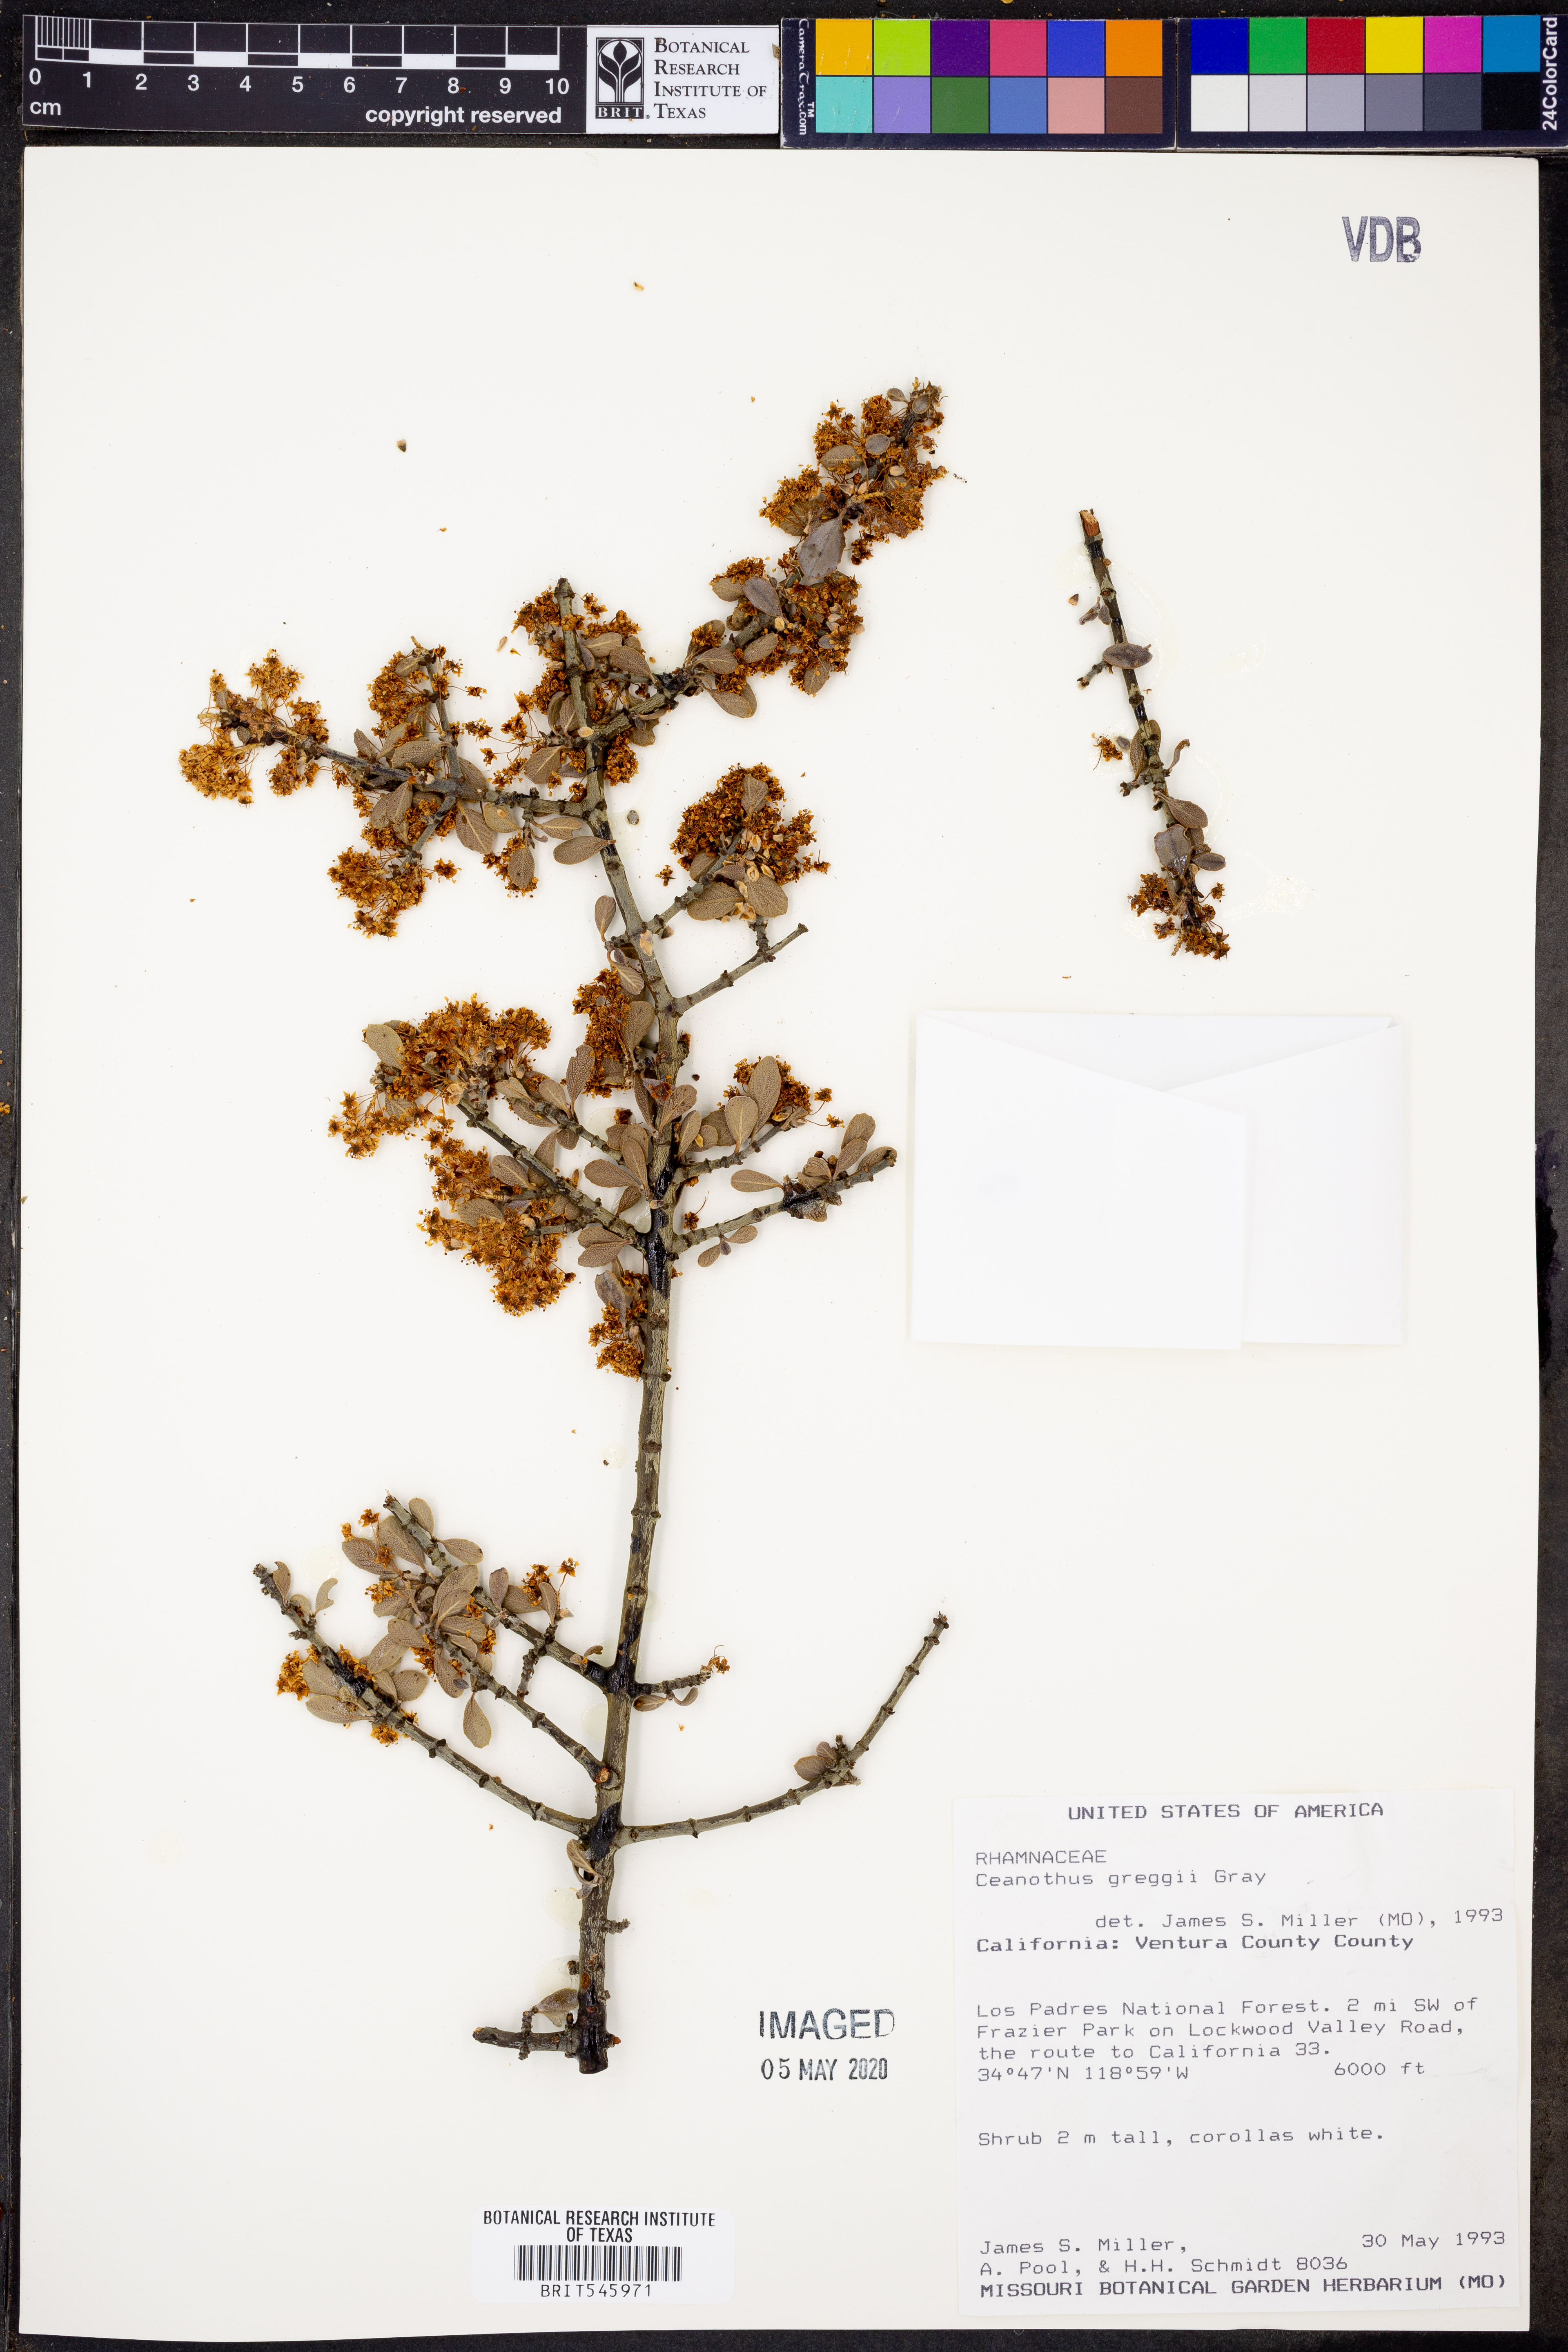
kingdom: Plantae
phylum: Tracheophyta
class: Magnoliopsida
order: Rosales
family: Rhamnaceae
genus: Ceanothus
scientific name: Ceanothus pauciflorus
